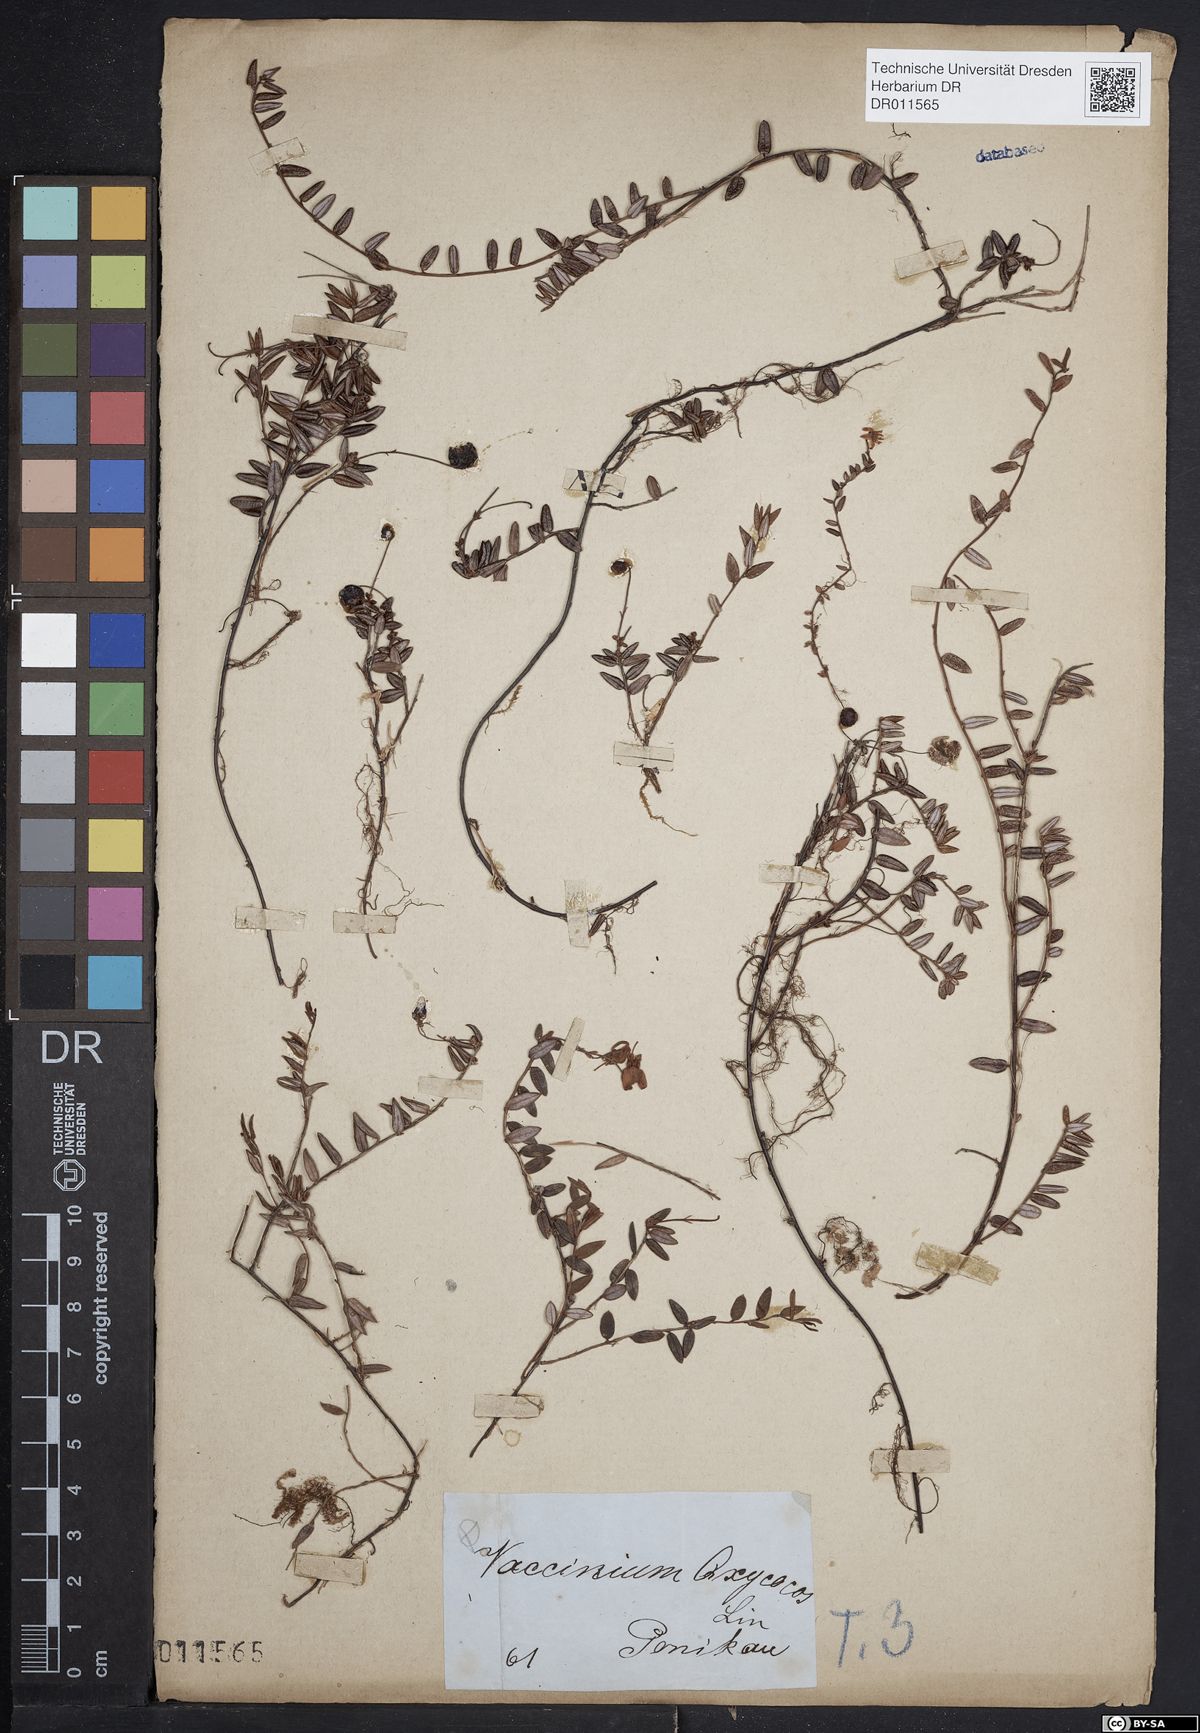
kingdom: Plantae
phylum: Tracheophyta
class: Magnoliopsida
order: Ericales
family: Ericaceae
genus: Vaccinium
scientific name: Vaccinium oxycoccos
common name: Cranberry
